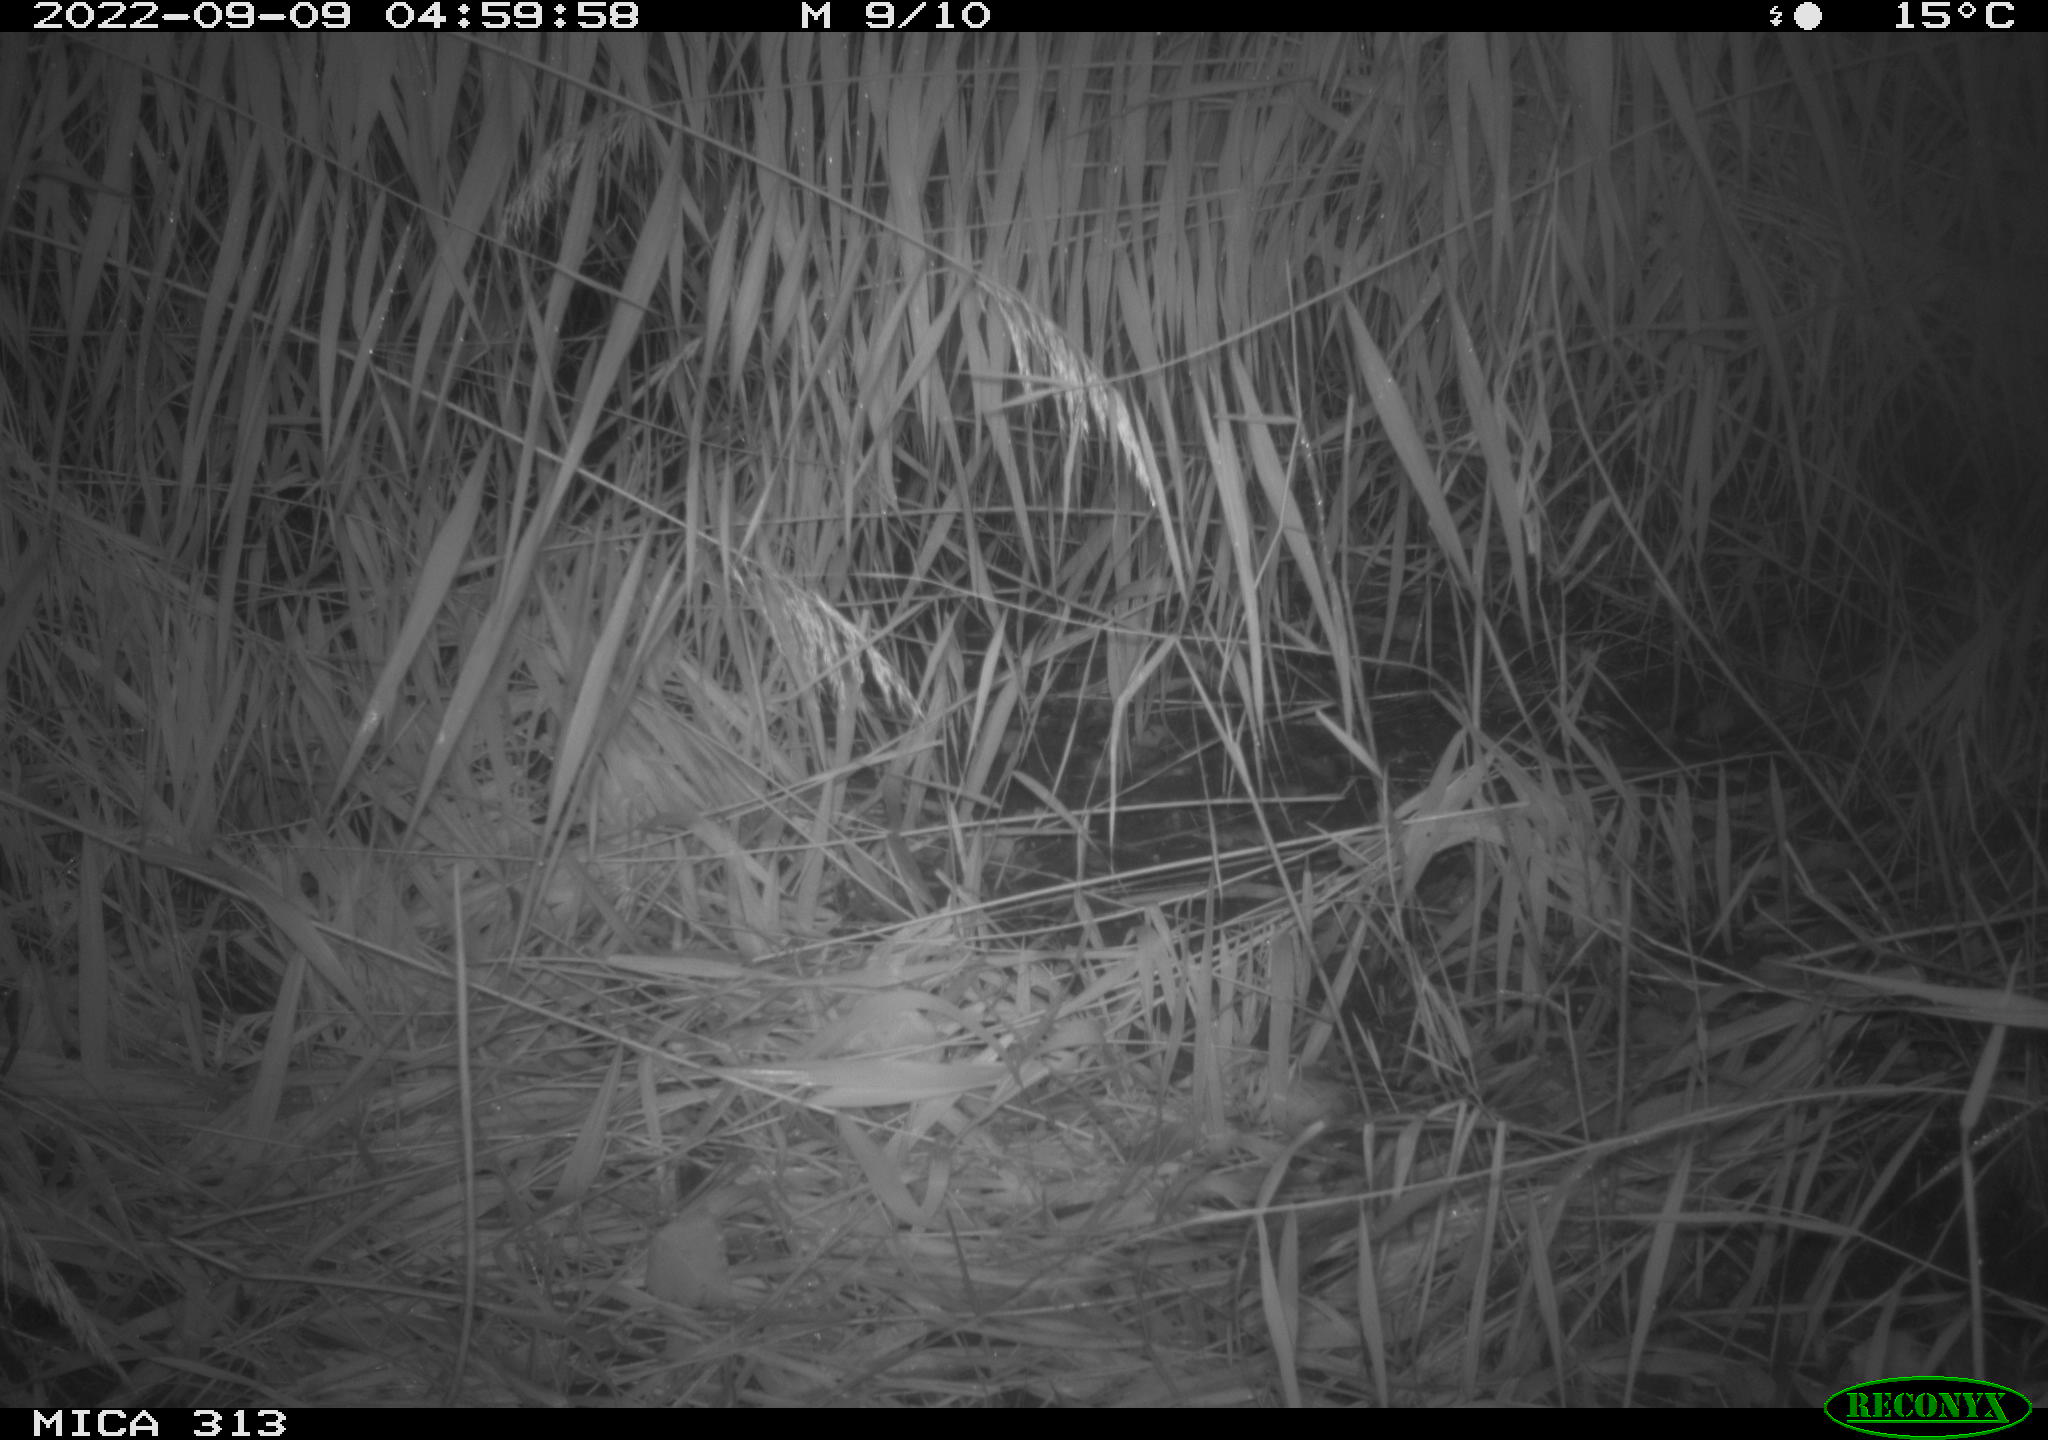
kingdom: Animalia
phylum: Chordata
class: Mammalia
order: Rodentia
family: Muridae
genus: Rattus
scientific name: Rattus norvegicus
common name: Brown rat
